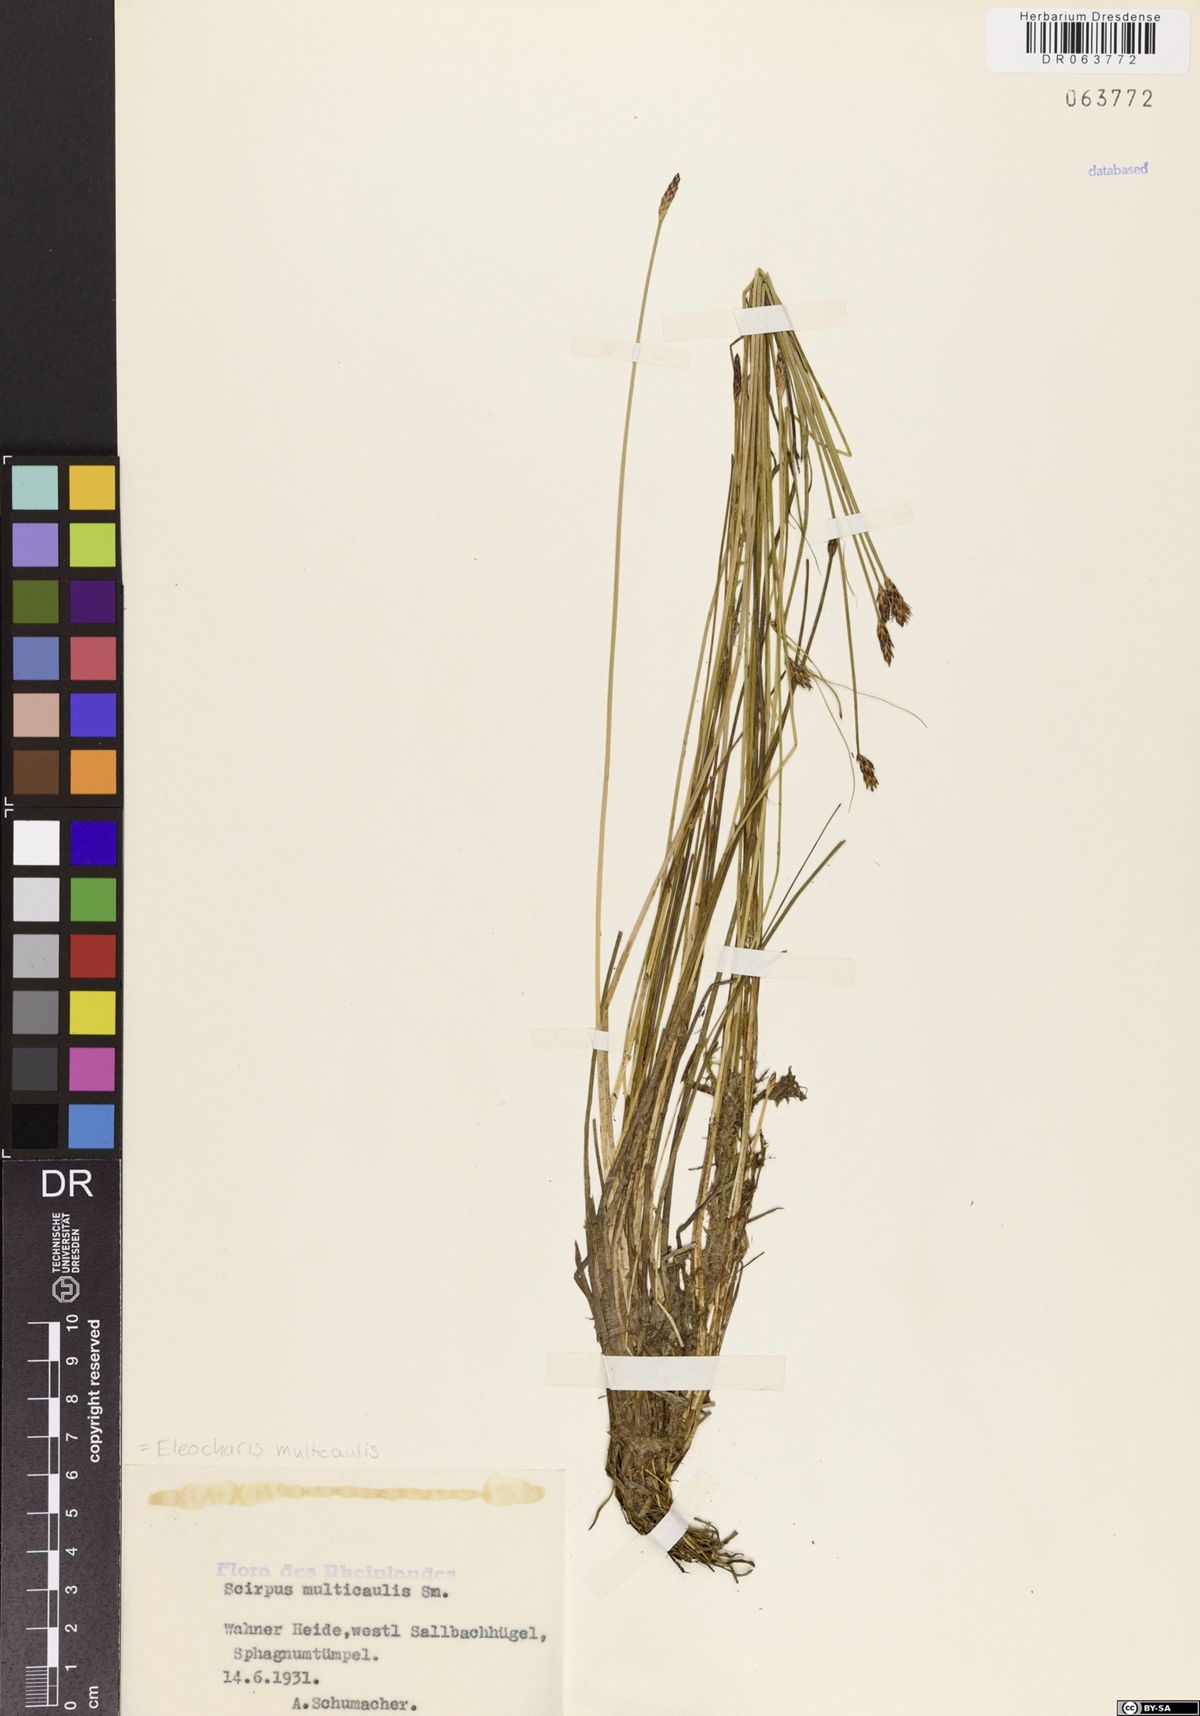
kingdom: Plantae
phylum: Tracheophyta
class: Liliopsida
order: Poales
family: Cyperaceae
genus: Eleocharis
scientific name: Eleocharis multicaulis
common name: Many-stalked spike-rush
